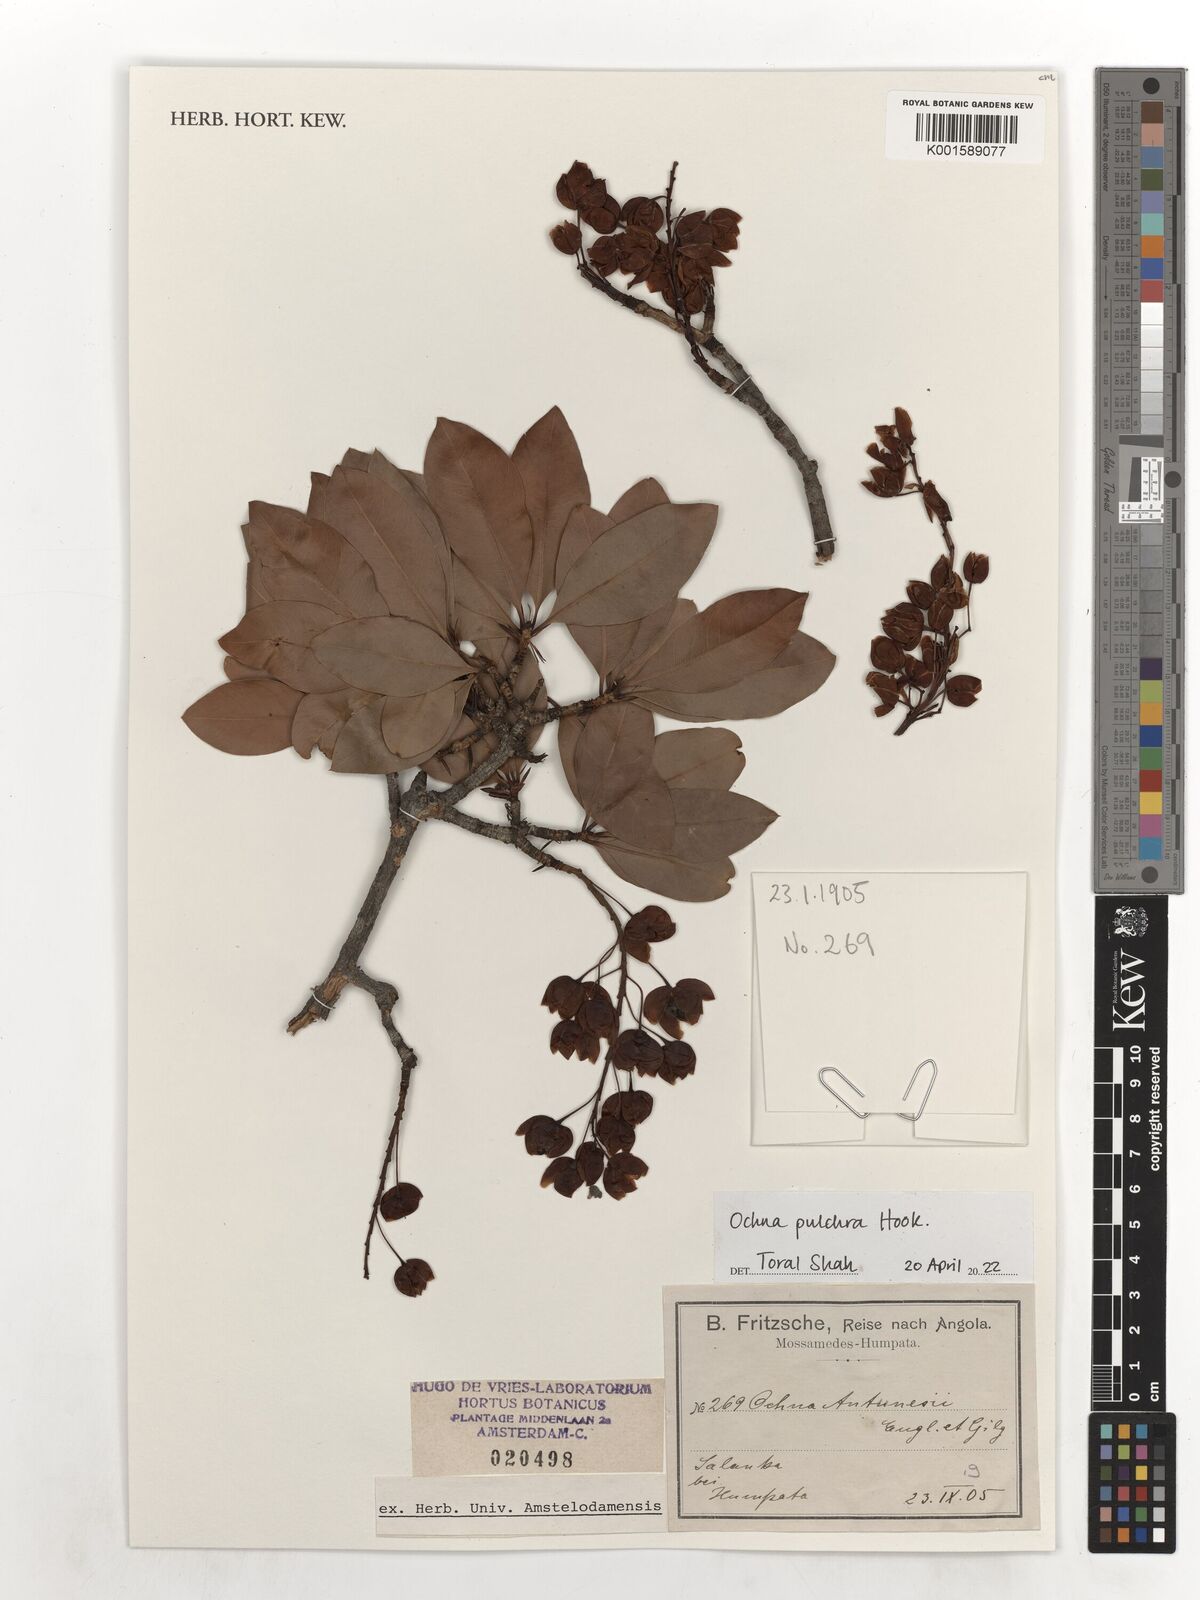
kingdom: Plantae
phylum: Tracheophyta
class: Magnoliopsida
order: Malpighiales
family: Ochnaceae
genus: Ochna
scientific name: Ochna pulchra
